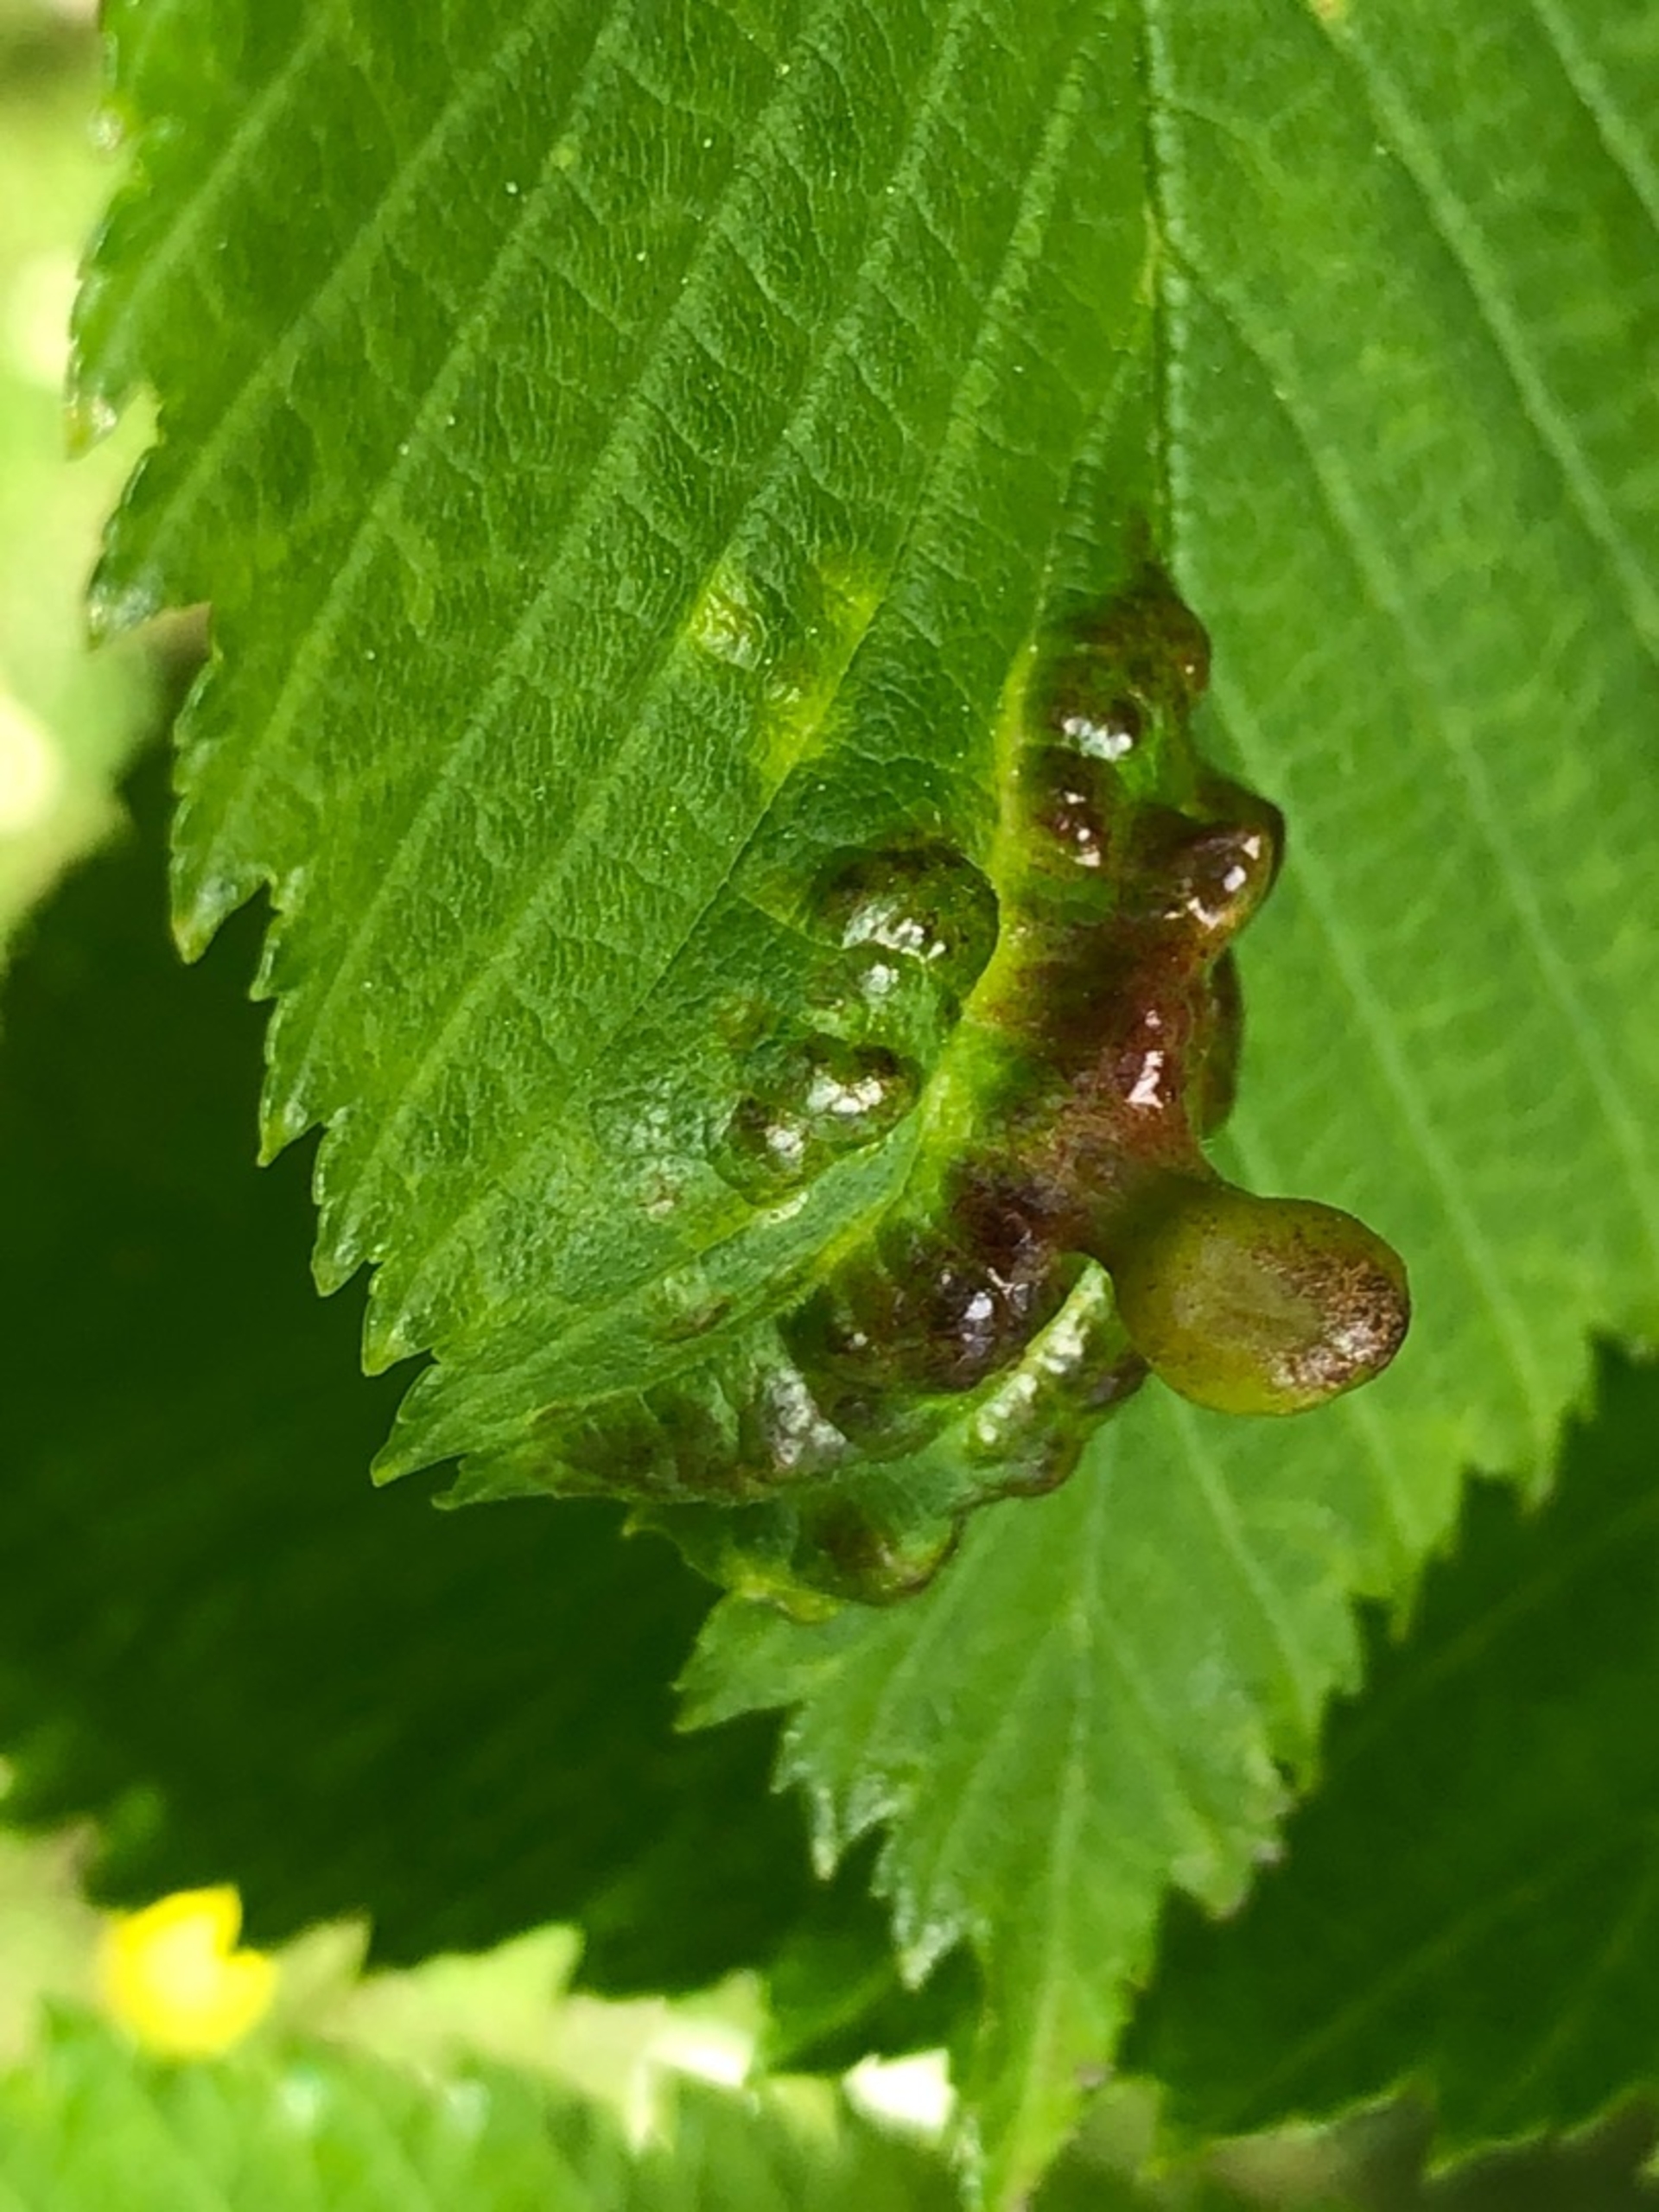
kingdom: Animalia
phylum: Arthropoda
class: Insecta
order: Hemiptera
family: Aphididae
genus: Tetraneura
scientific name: Tetraneura ulmi
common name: Elmegallelus
